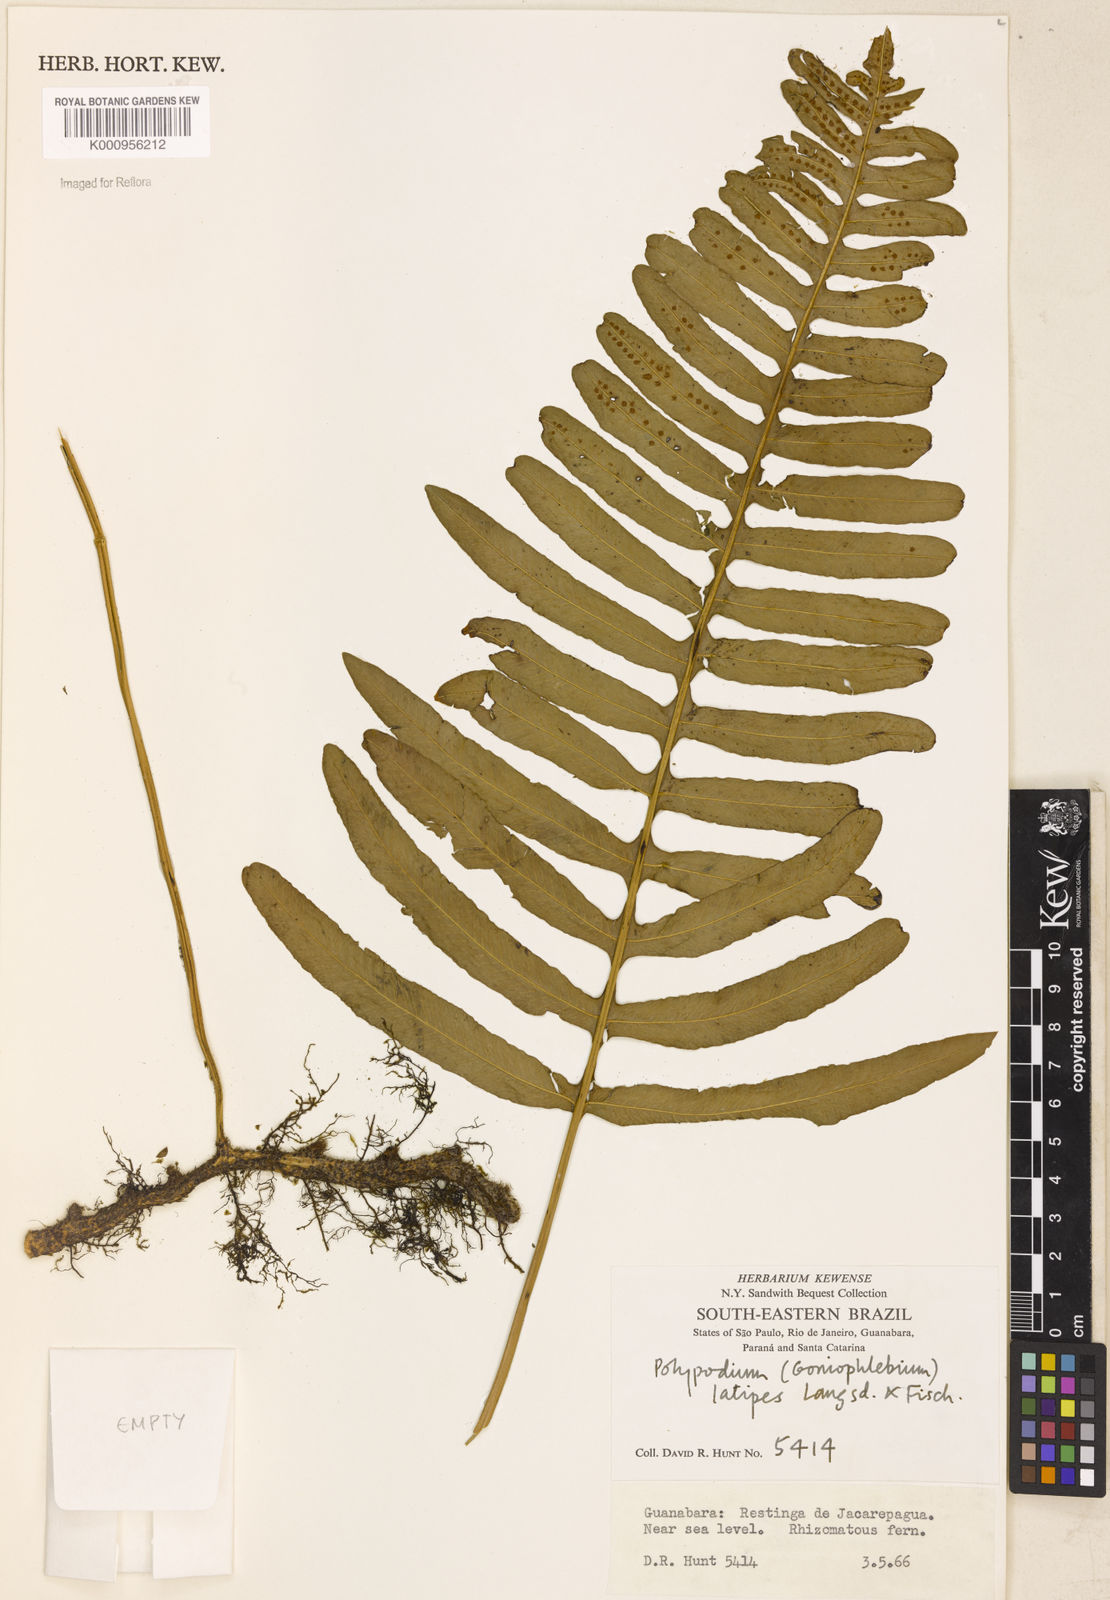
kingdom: Plantae
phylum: Tracheophyta
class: Polypodiopsida
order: Polypodiales
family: Polypodiaceae
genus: Serpocaulon
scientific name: Serpocaulon latipes
